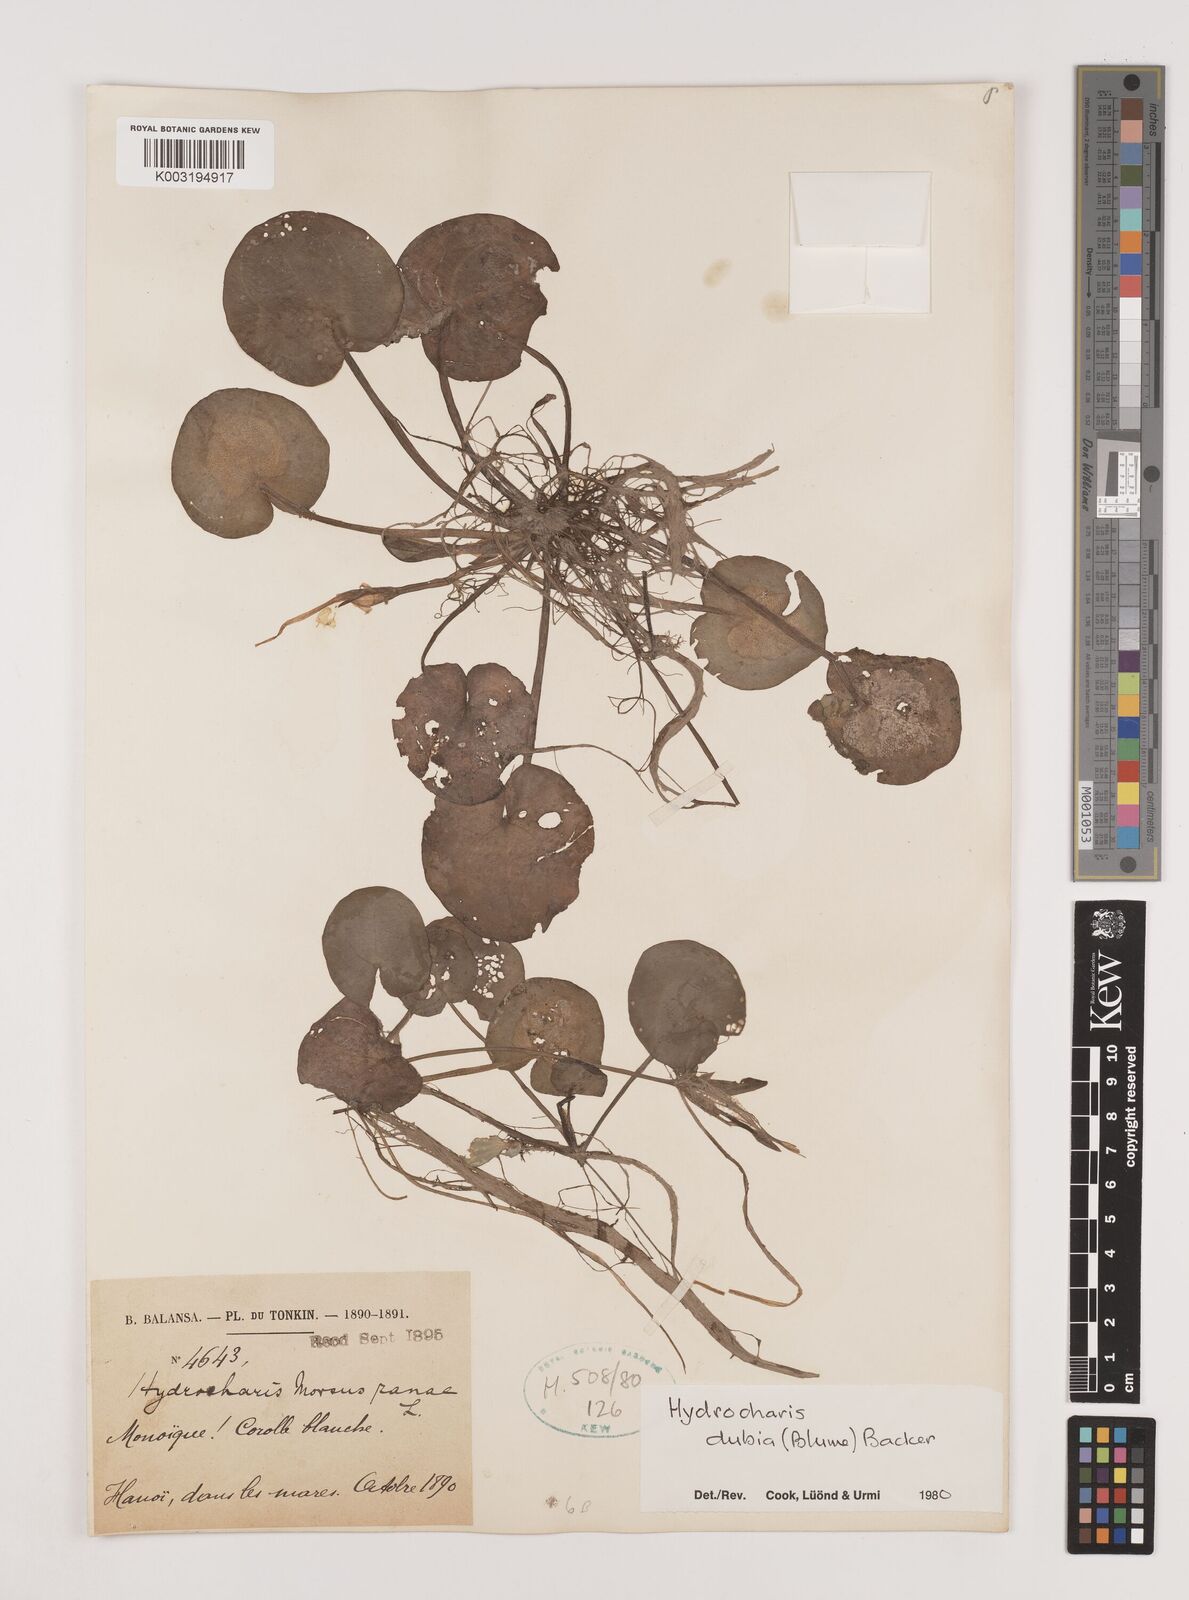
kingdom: Plantae
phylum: Tracheophyta
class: Liliopsida
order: Alismatales
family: Hydrocharitaceae
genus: Hydrocharis
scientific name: Hydrocharis dubia
